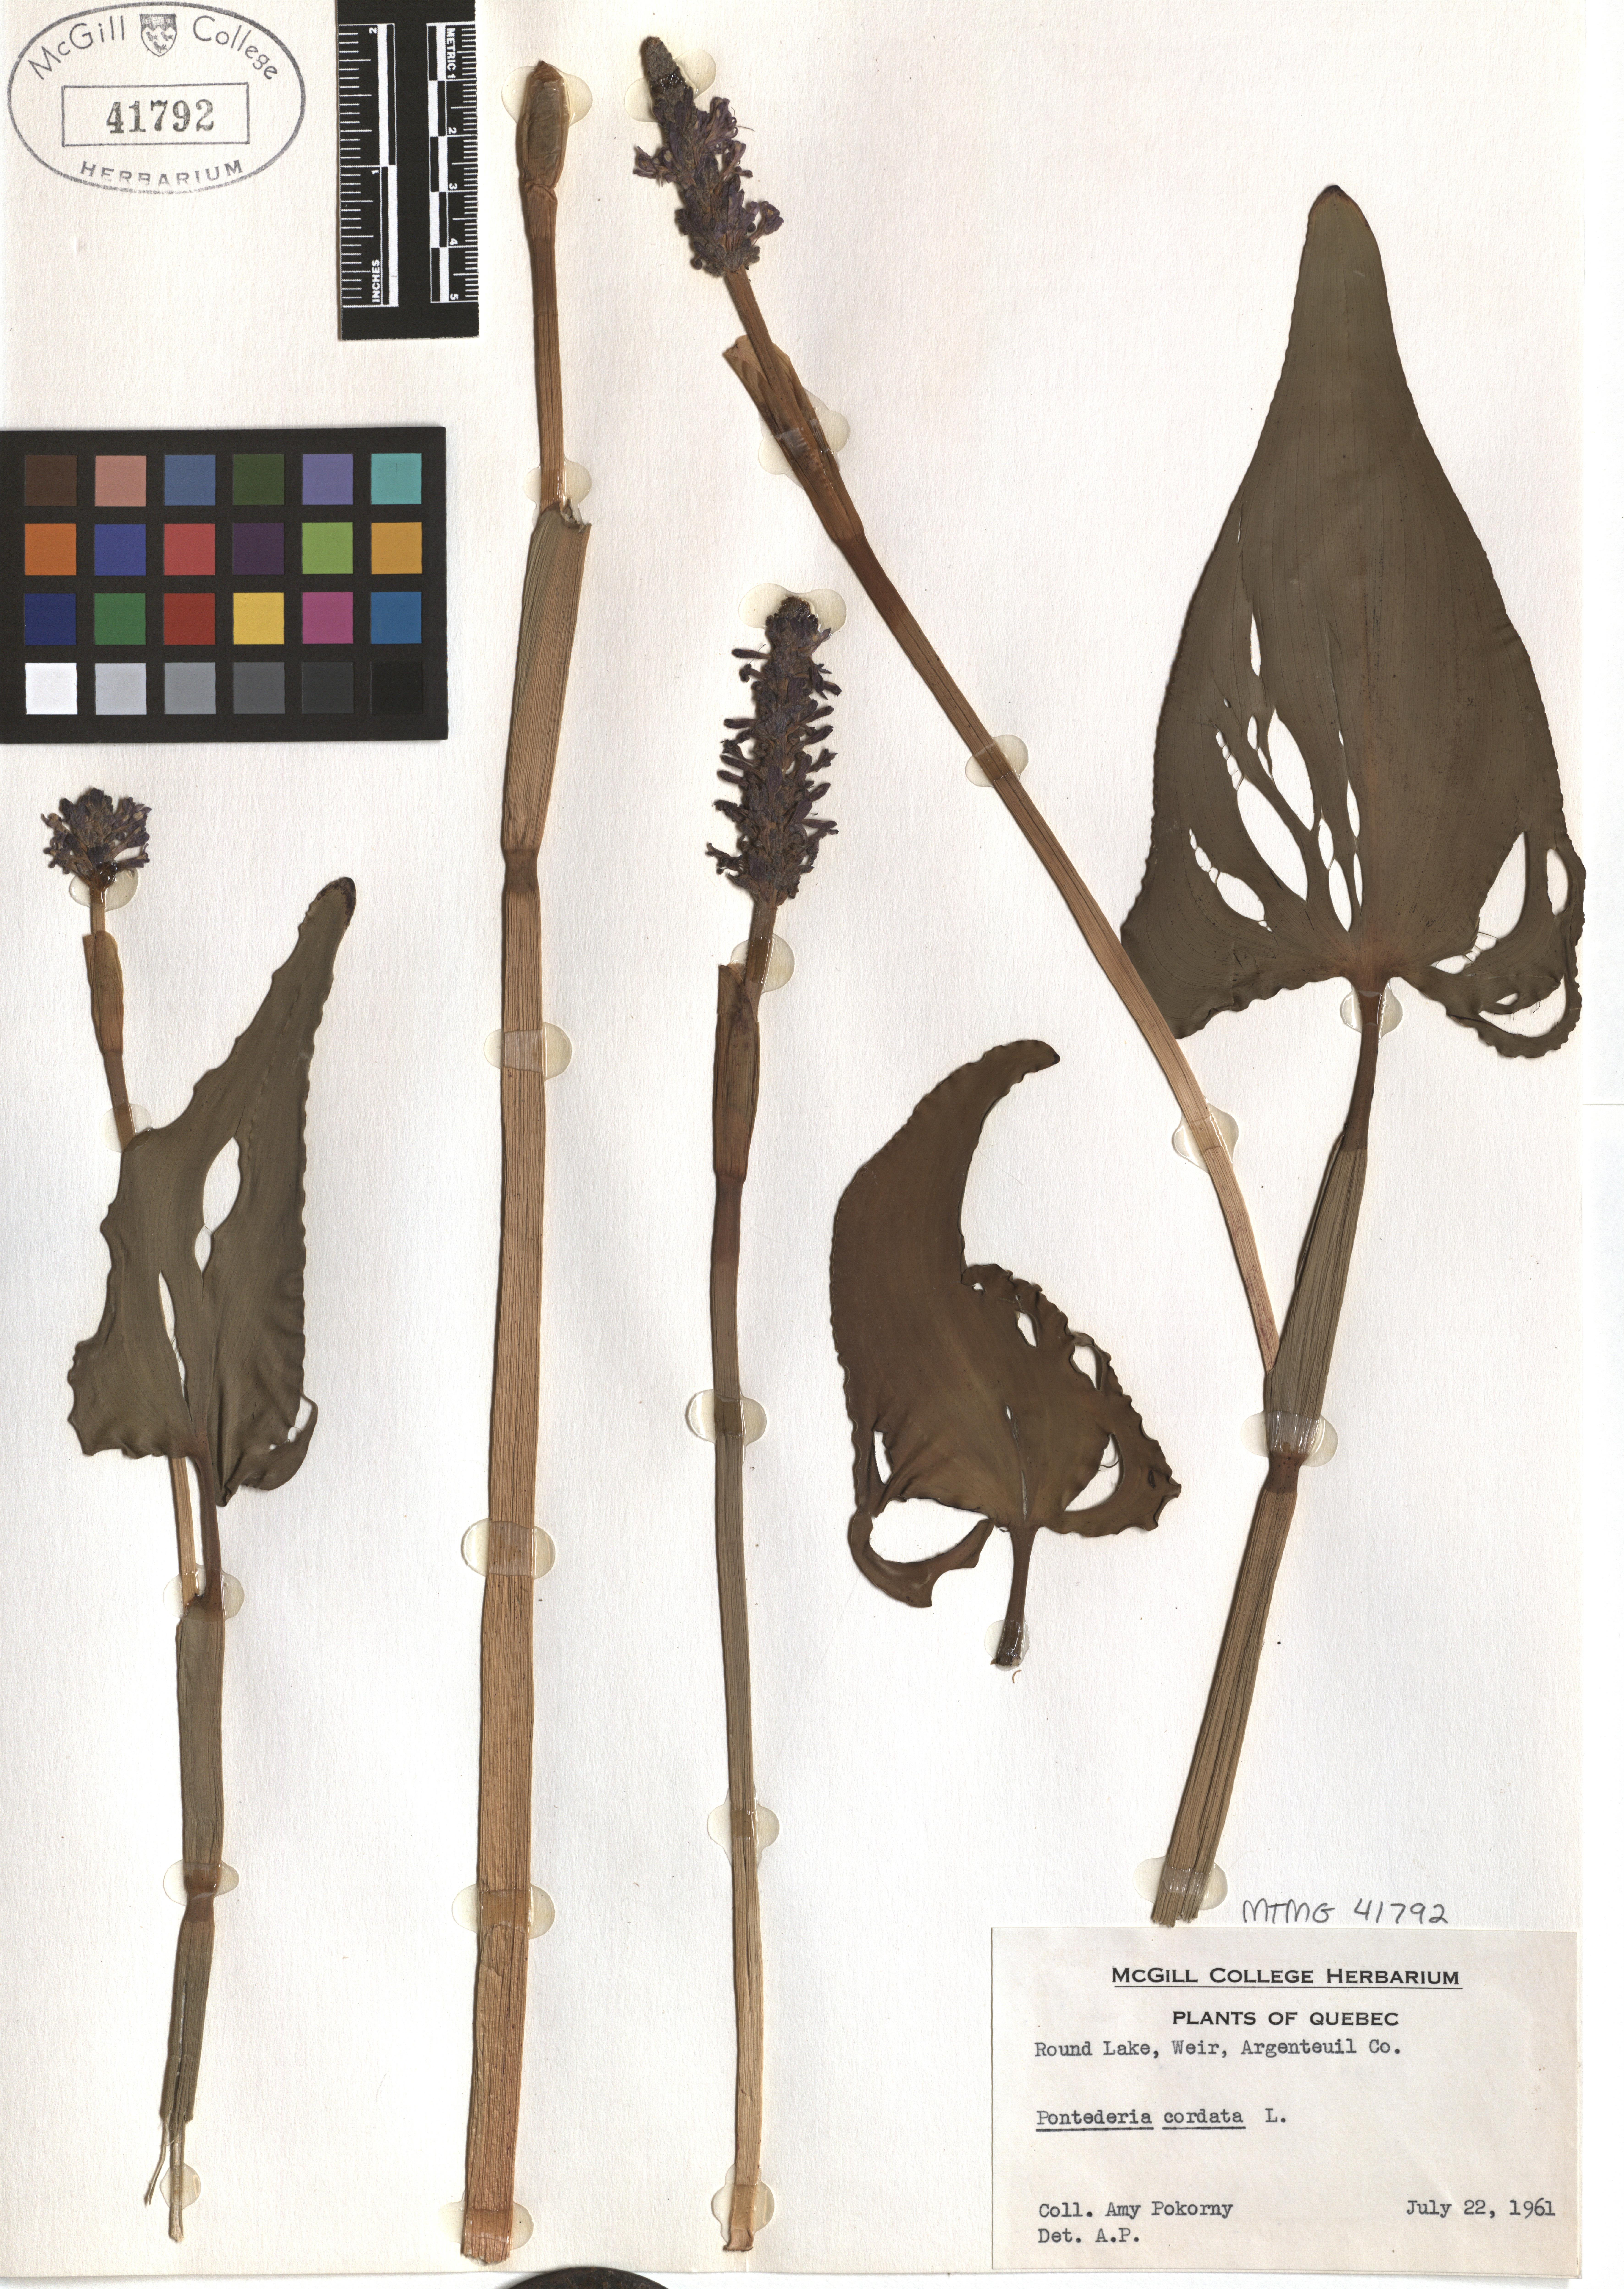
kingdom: Plantae
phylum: Tracheophyta
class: Liliopsida
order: Commelinales
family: Pontederiaceae
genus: Pontederia
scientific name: Pontederia cordata
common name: Pickerelweed
